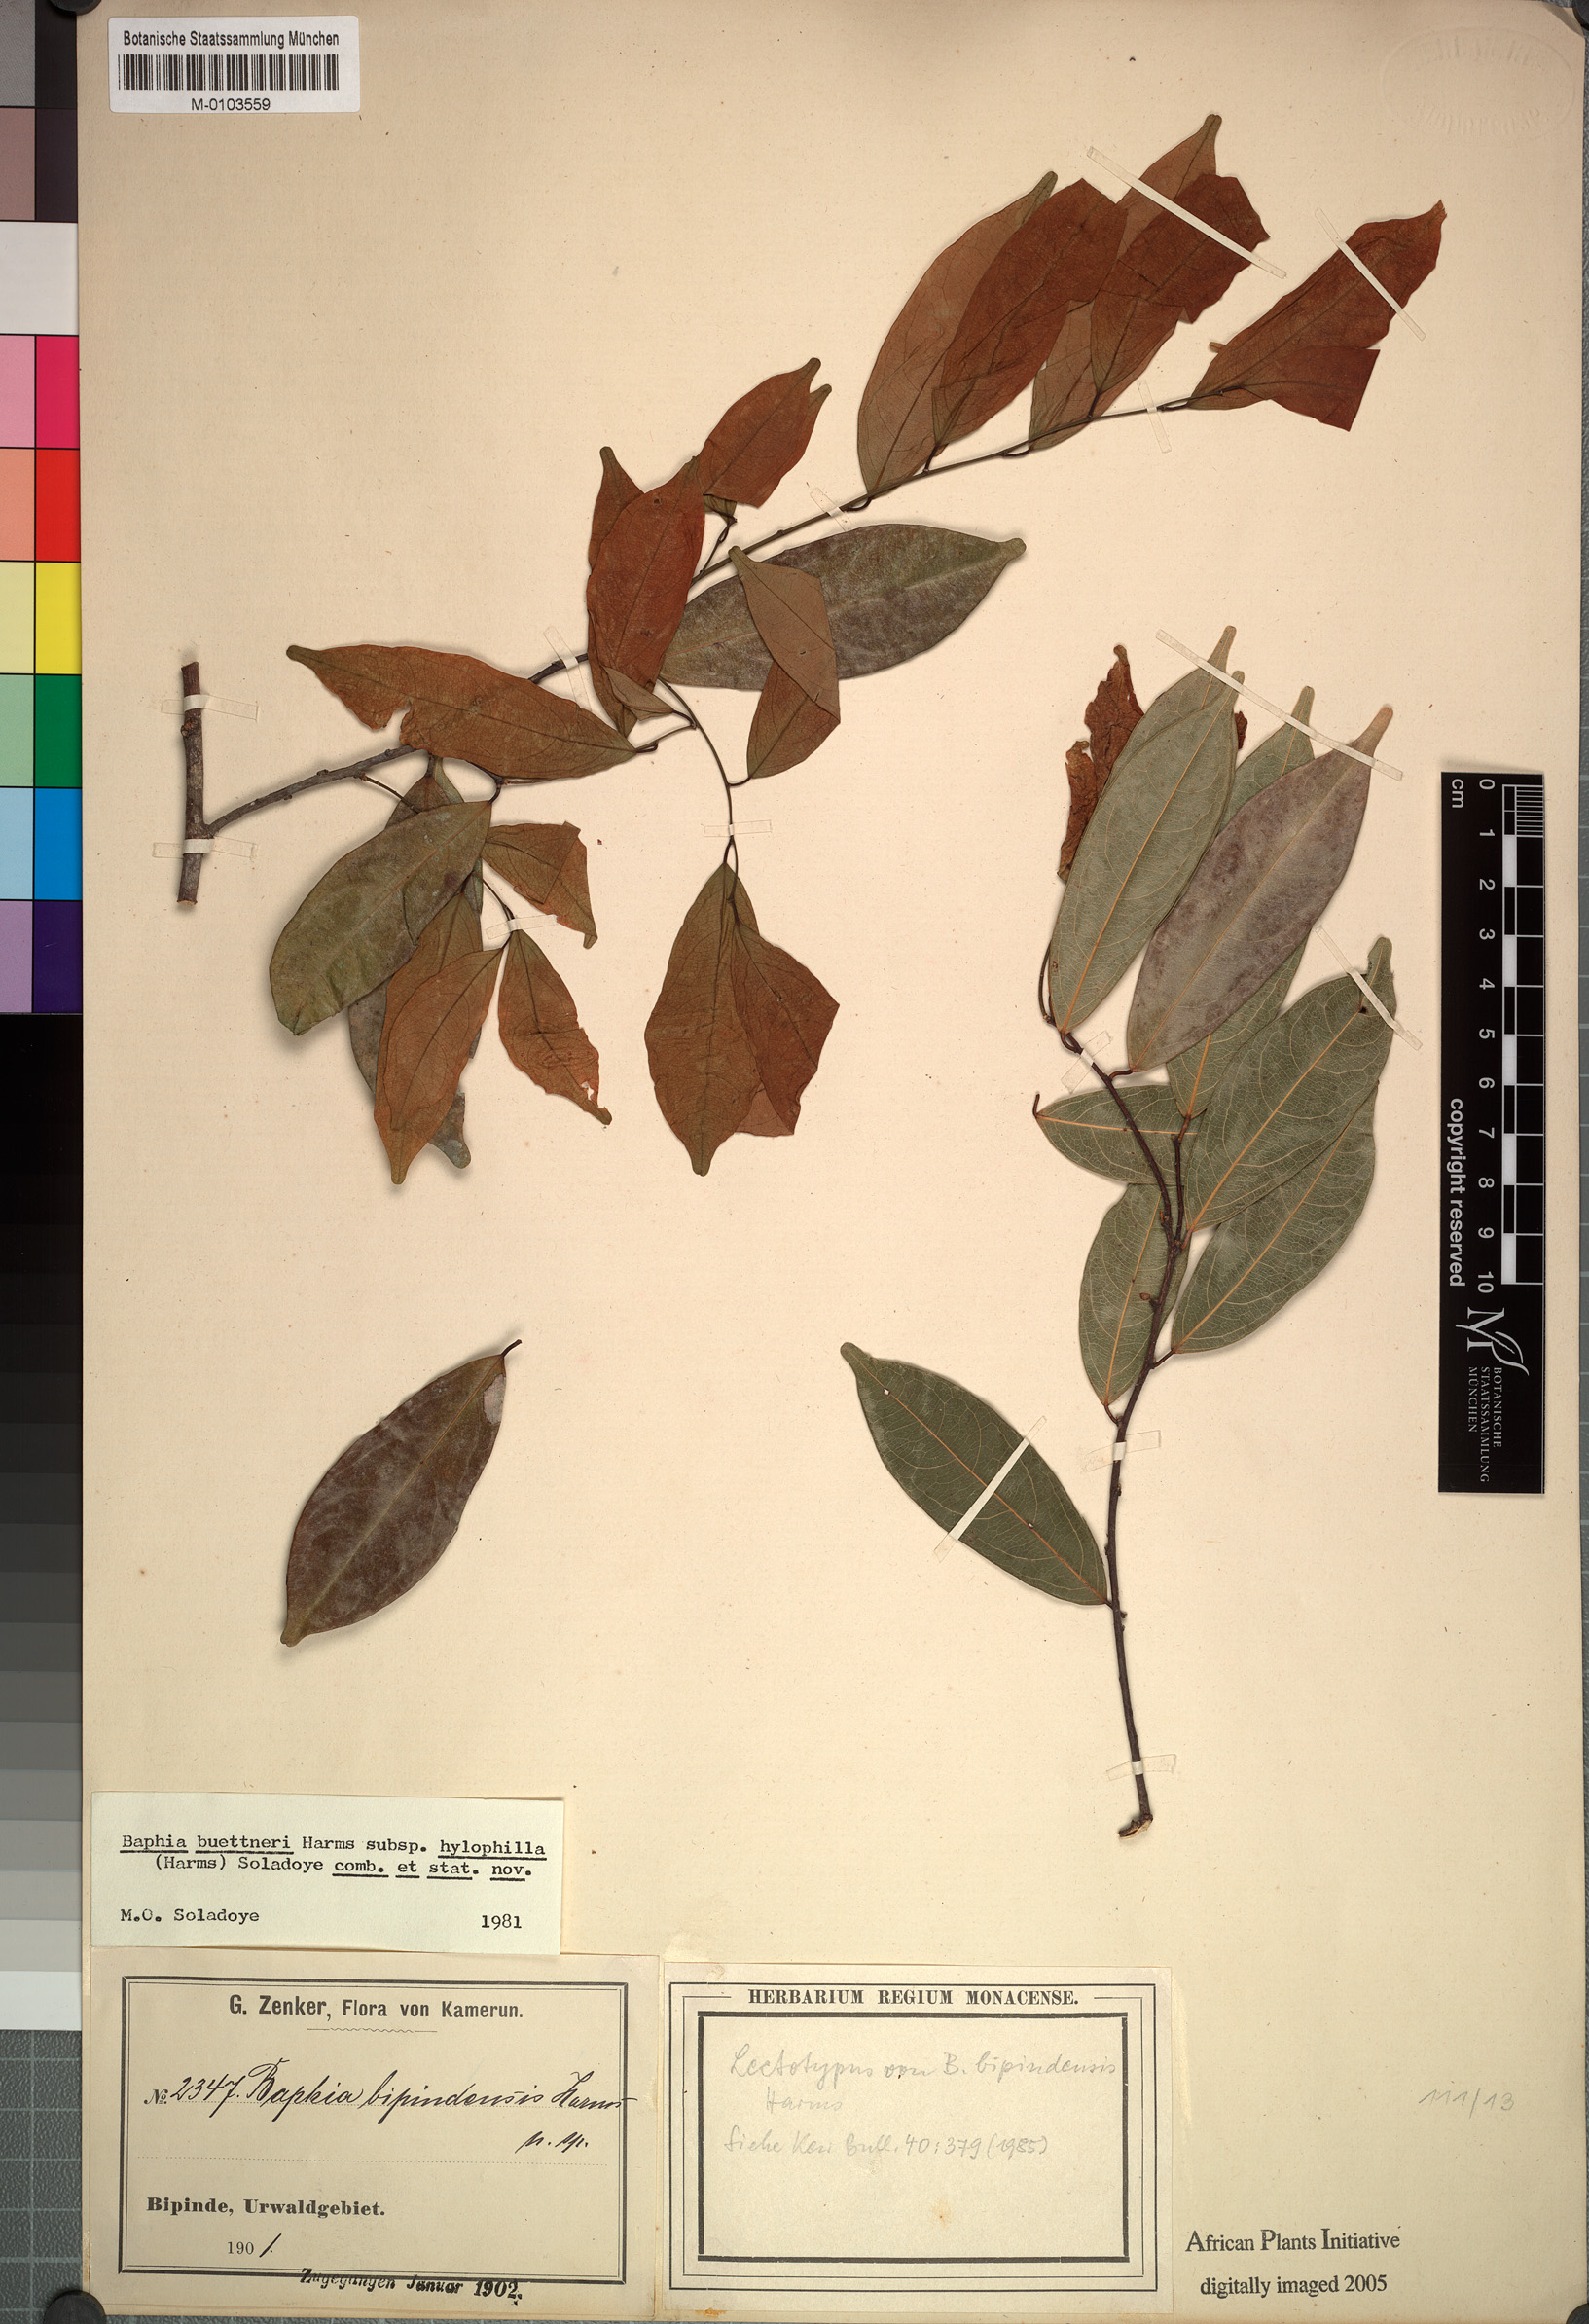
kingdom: Plantae
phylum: Tracheophyta
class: Magnoliopsida
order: Fabales
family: Fabaceae
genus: Baphia
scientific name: Baphia buettneri
